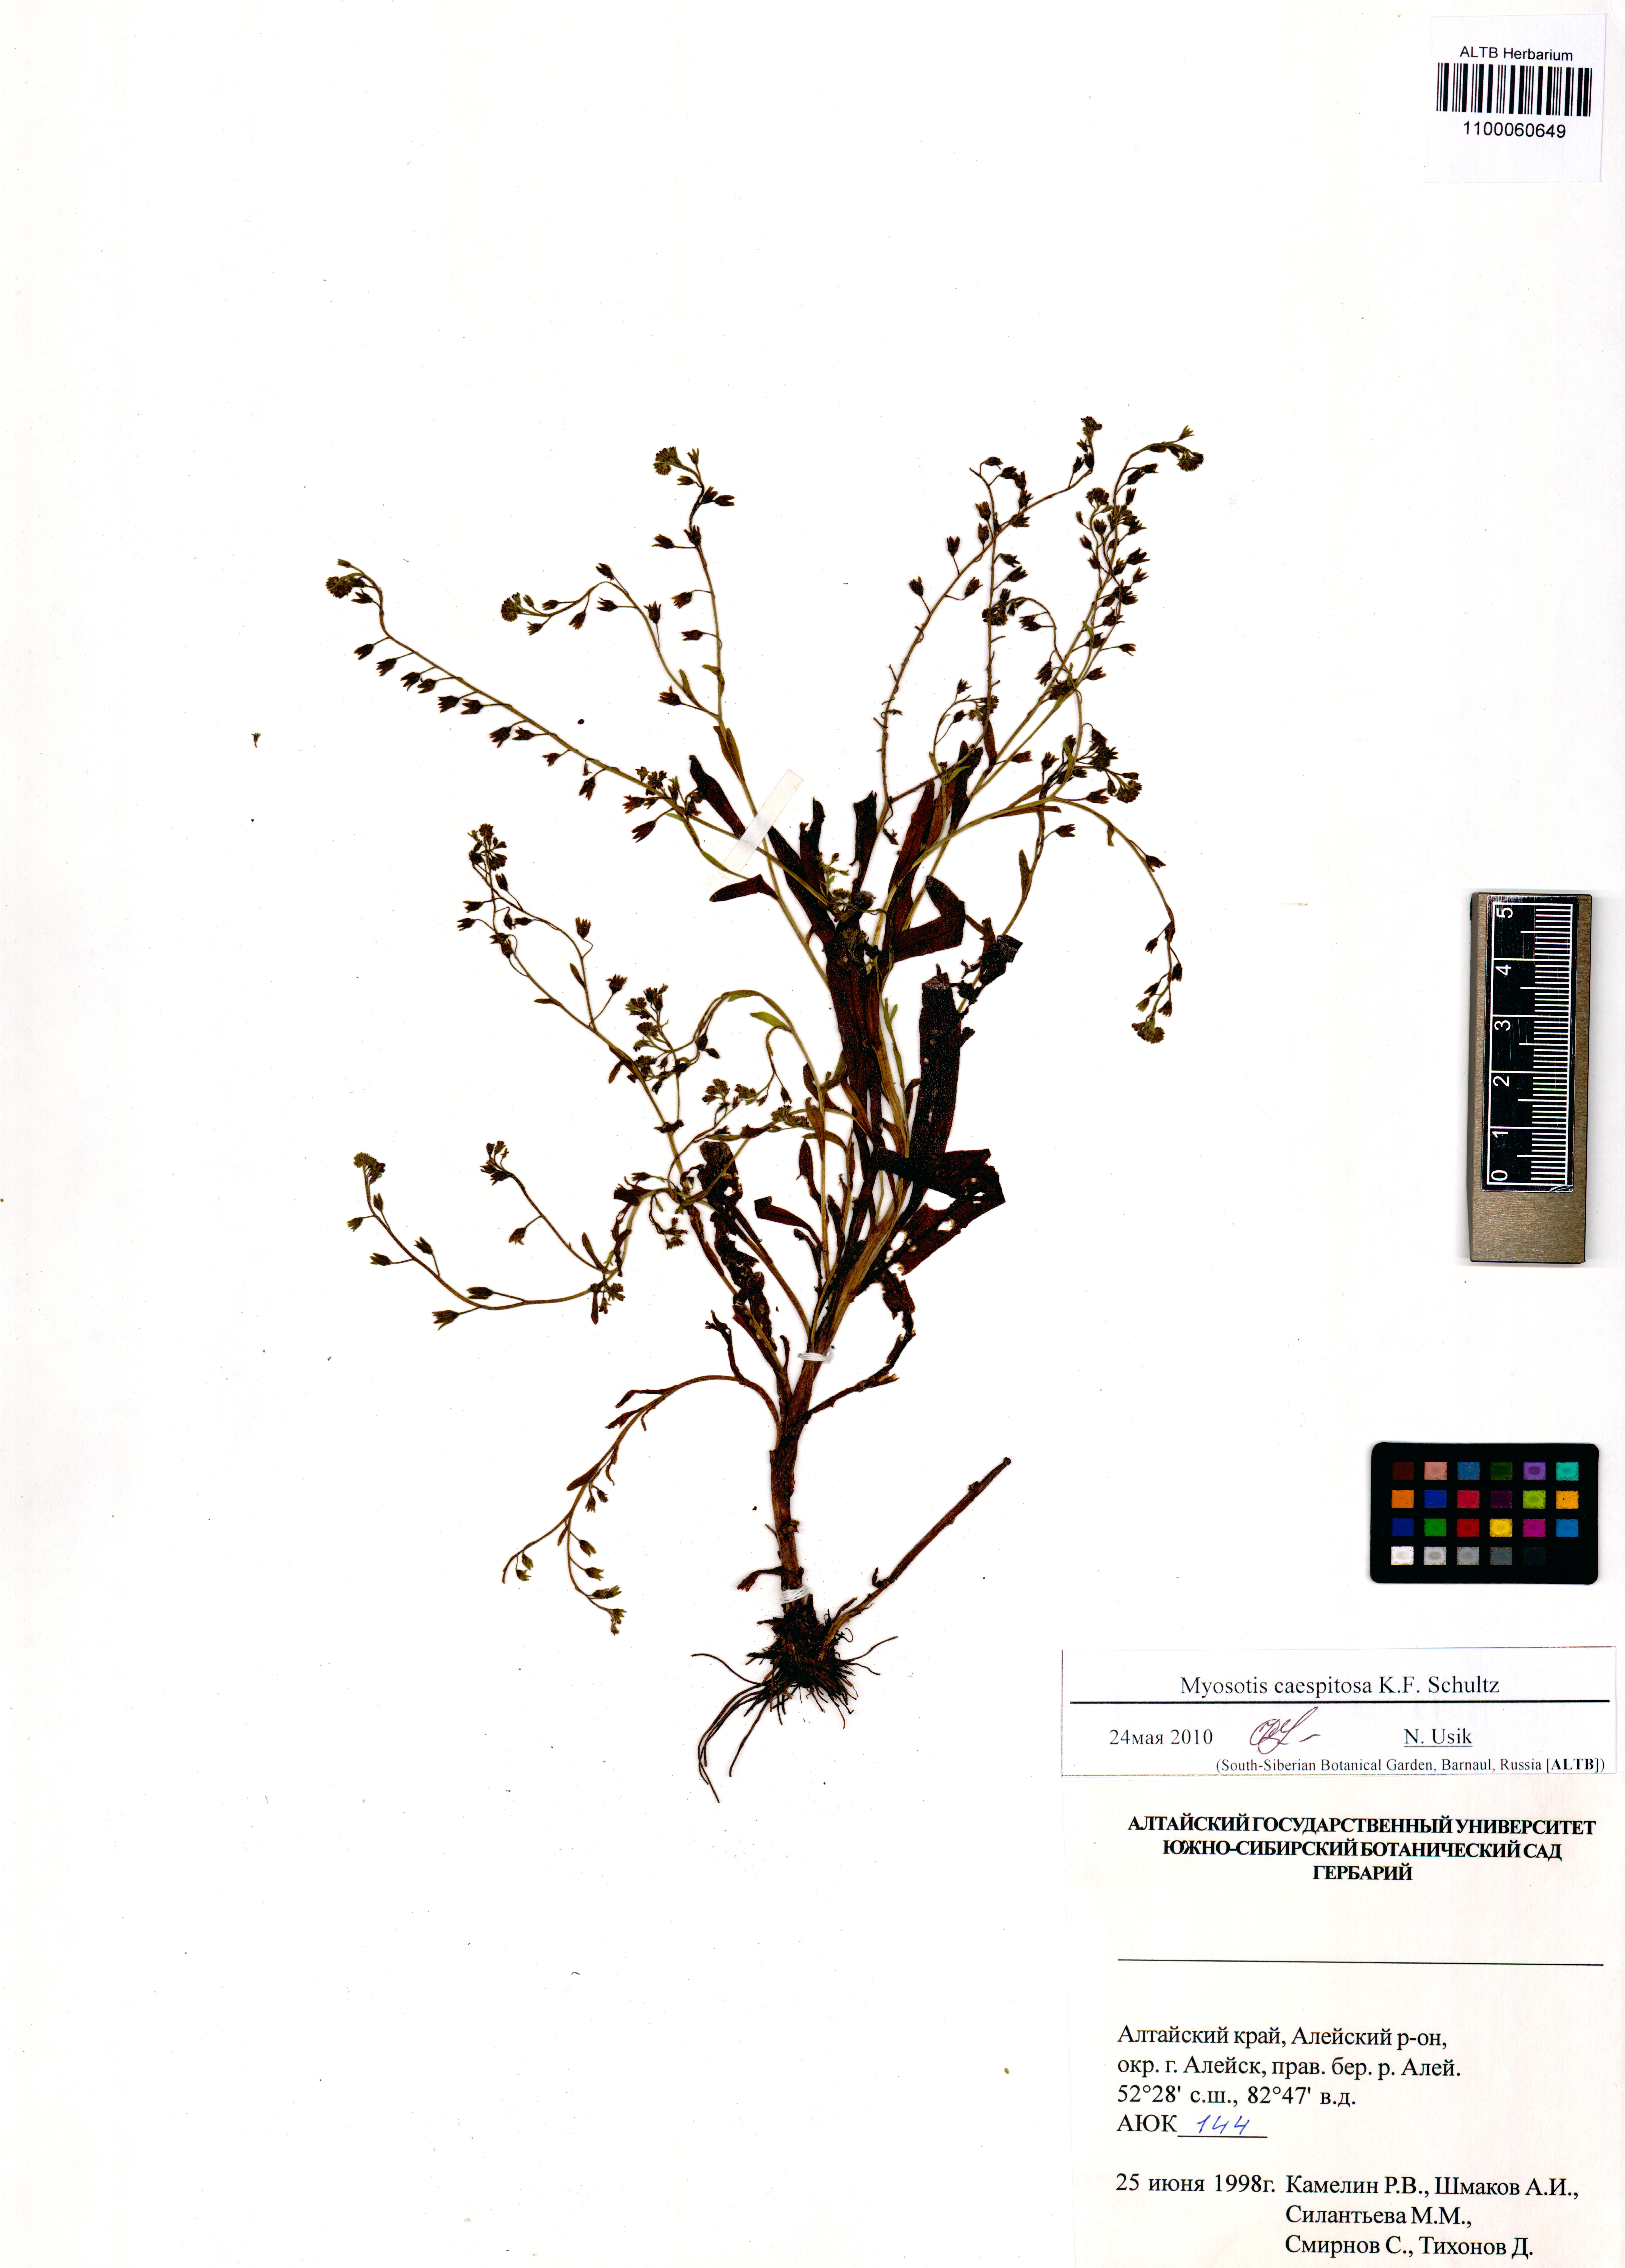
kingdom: Plantae
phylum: Tracheophyta
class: Magnoliopsida
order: Boraginales
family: Boraginaceae
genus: Myosotis
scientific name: Myosotis laxa
